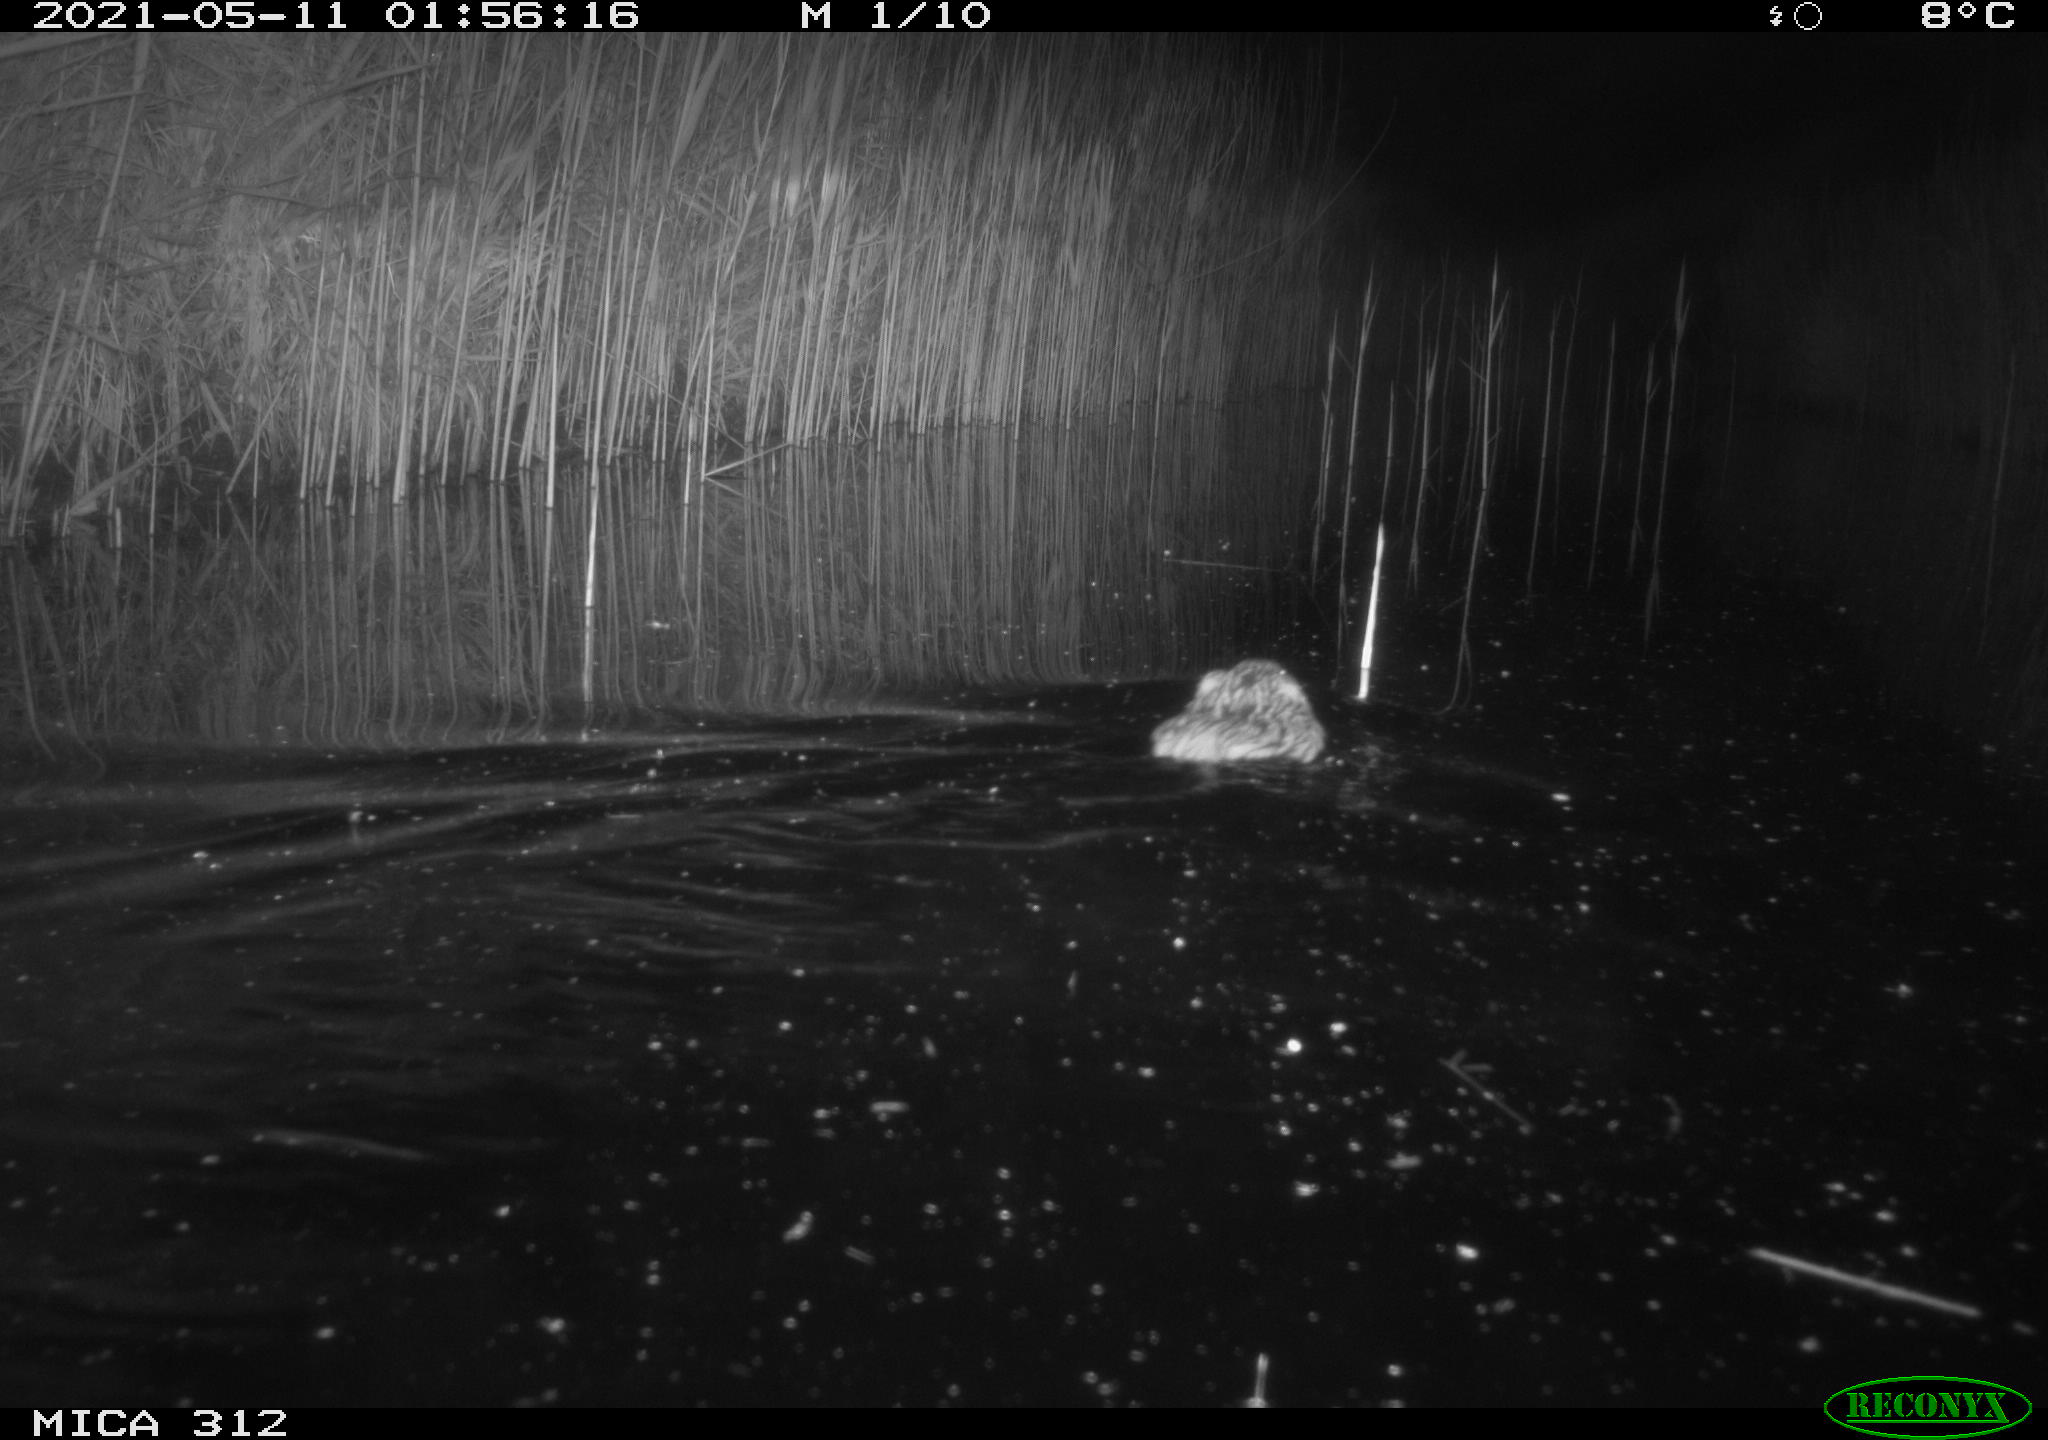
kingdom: Animalia
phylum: Chordata
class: Mammalia
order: Rodentia
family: Cricetidae
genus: Ondatra
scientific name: Ondatra zibethicus
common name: Muskrat
